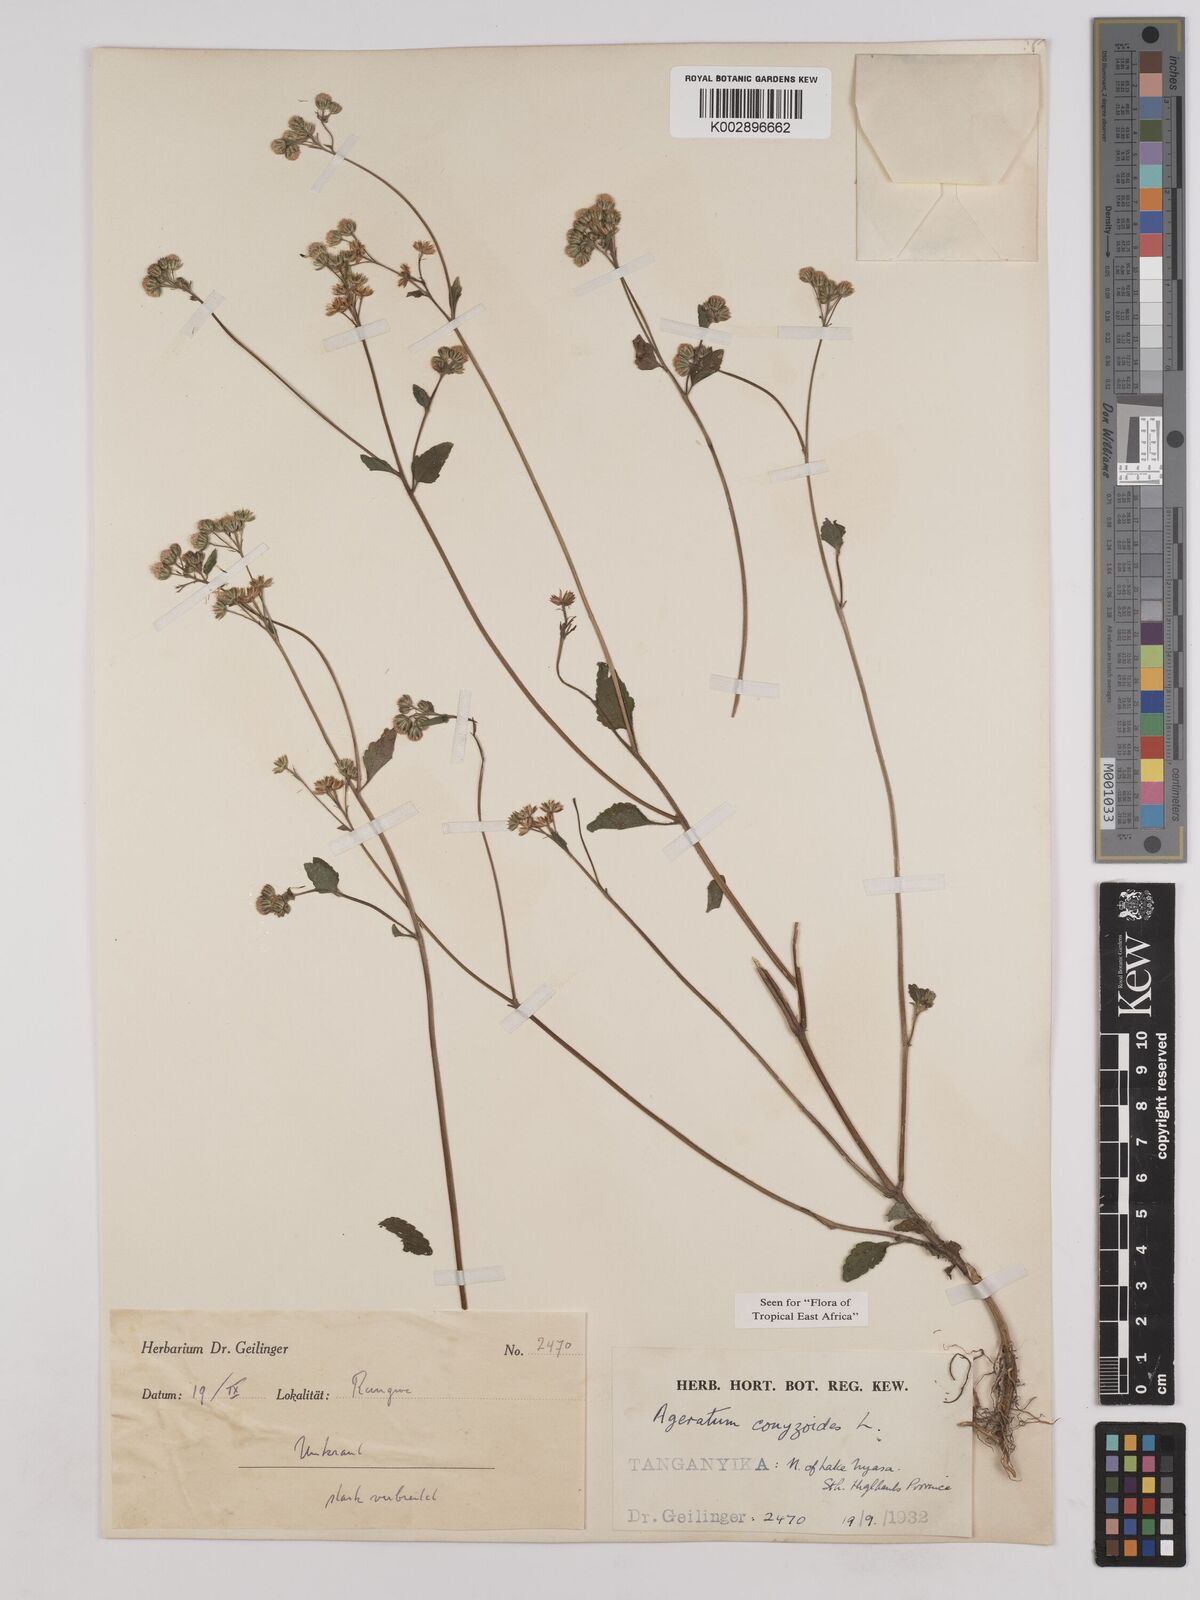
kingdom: Plantae
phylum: Tracheophyta
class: Magnoliopsida
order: Asterales
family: Asteraceae
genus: Ageratum
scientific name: Ageratum conyzoides
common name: Tropical whiteweed
